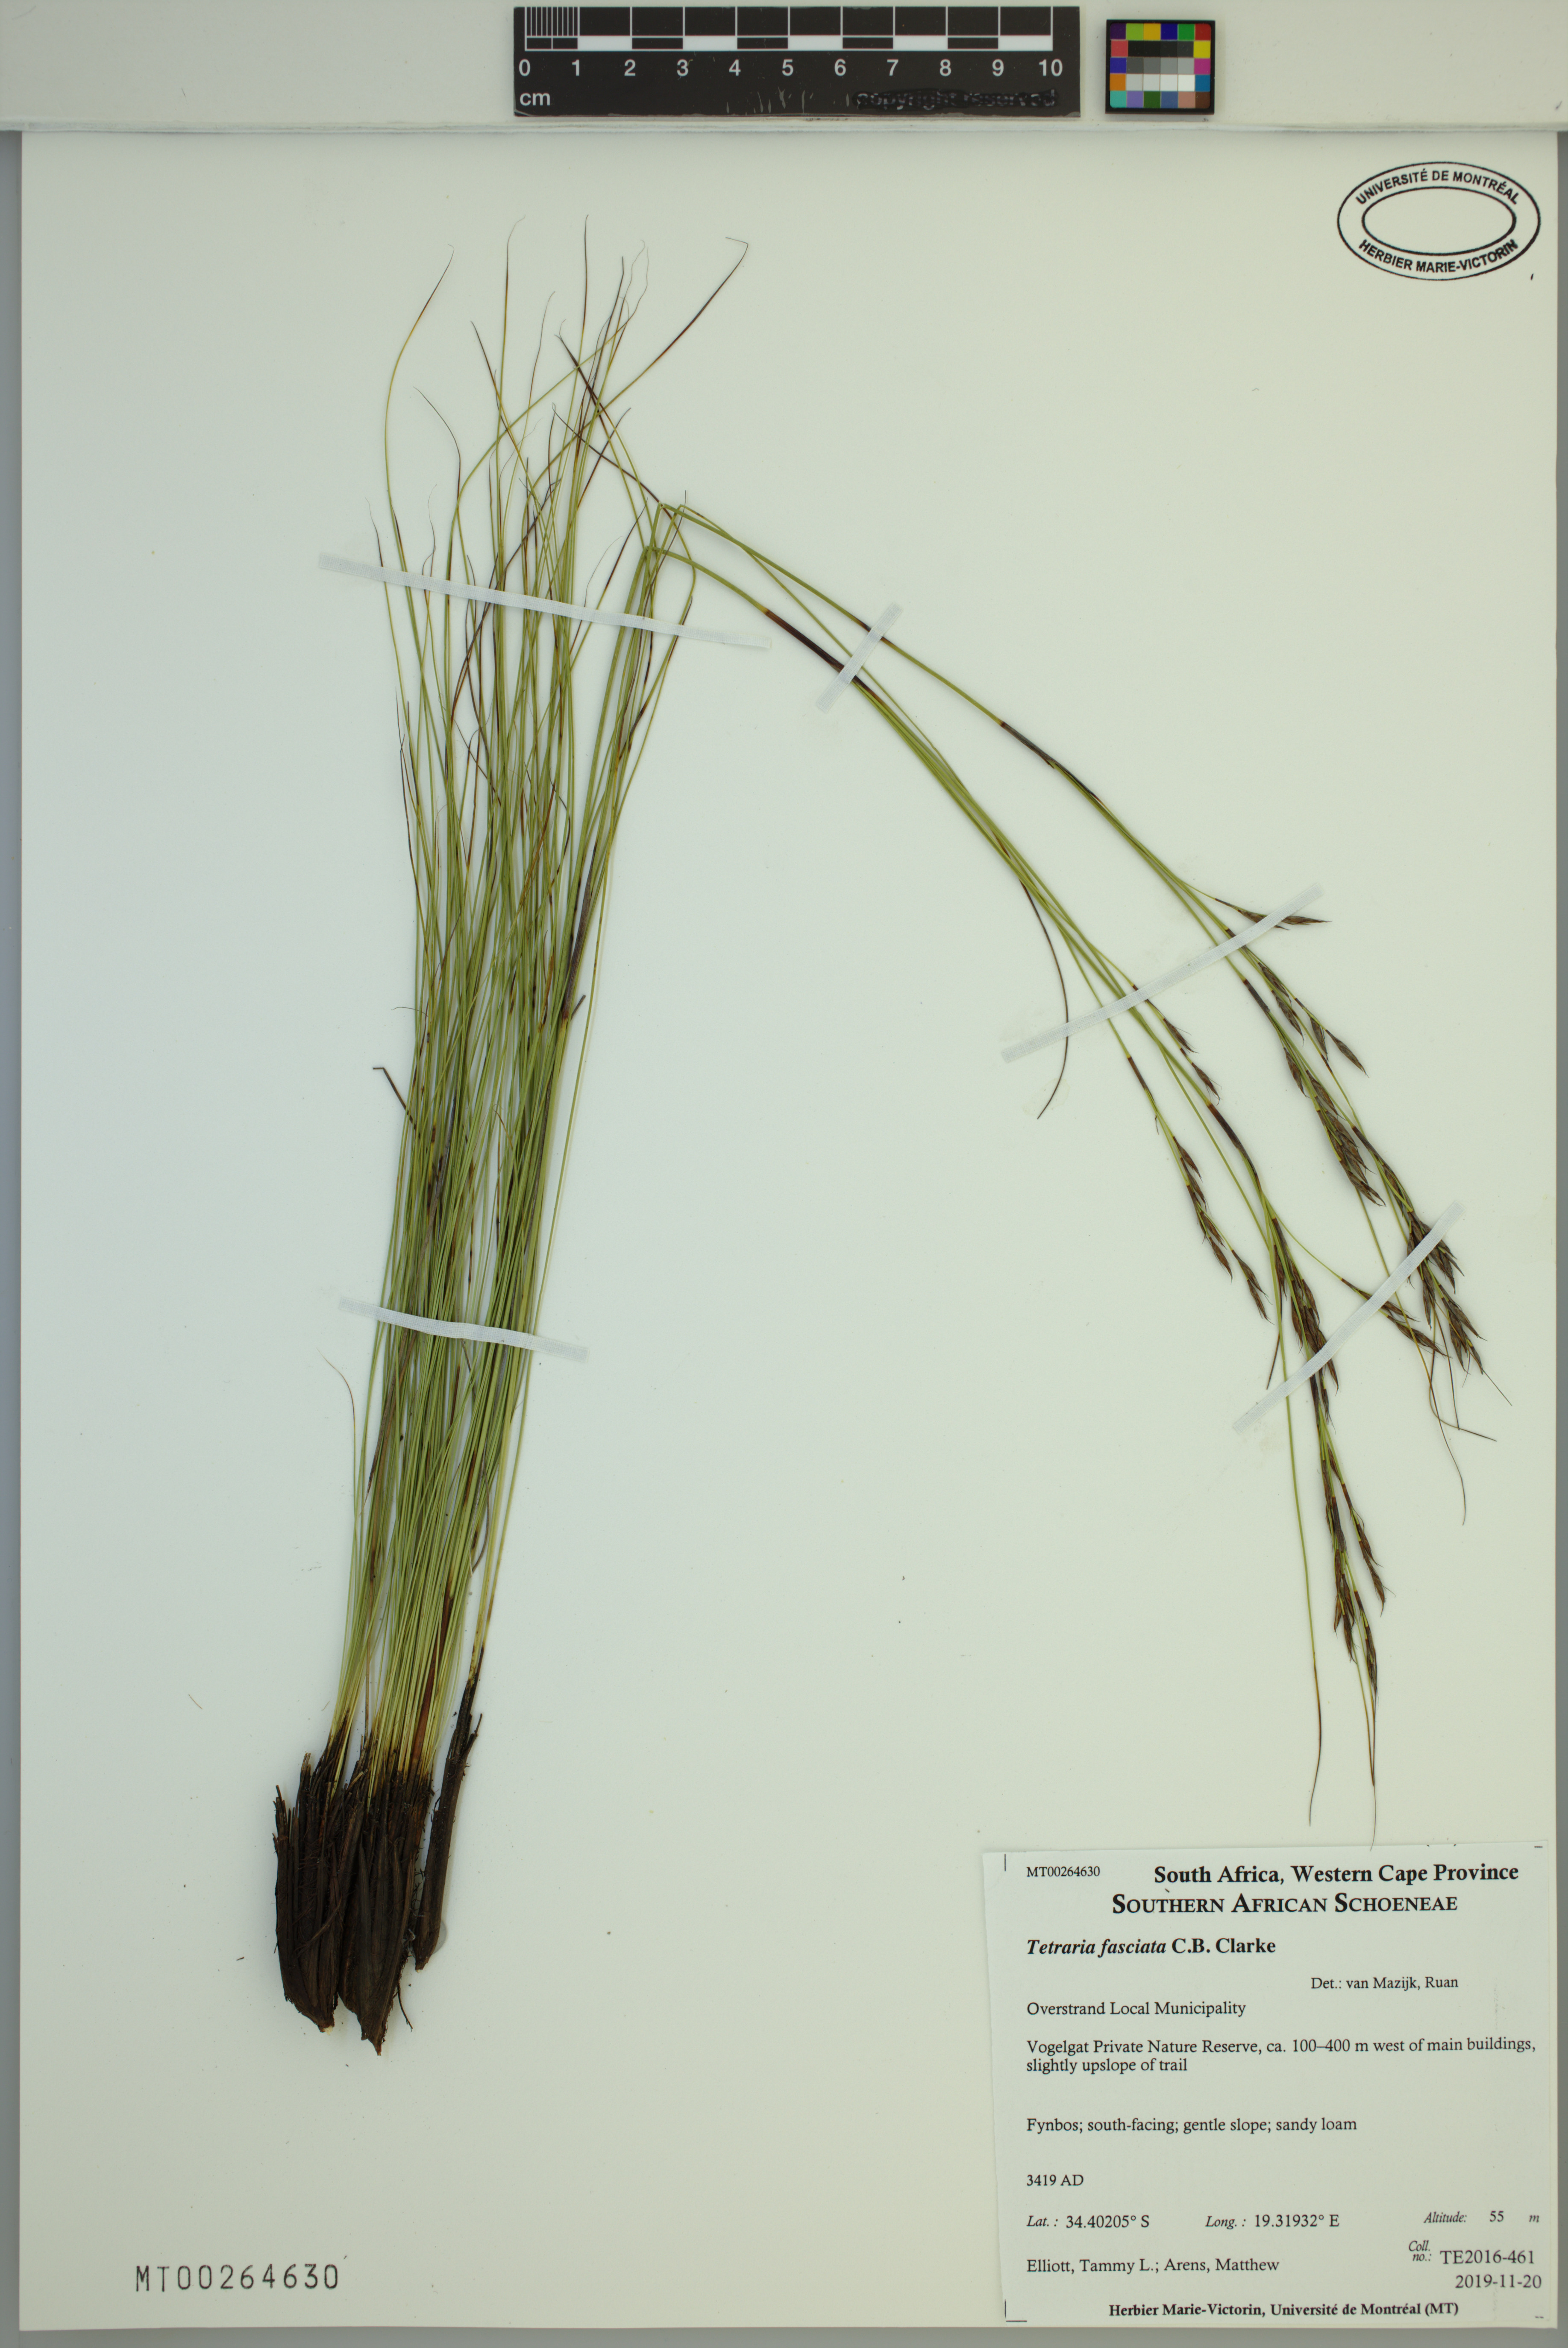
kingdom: Plantae
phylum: Tracheophyta
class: Liliopsida
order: Poales
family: Cyperaceae
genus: Tetraria
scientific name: Tetraria fasciata
